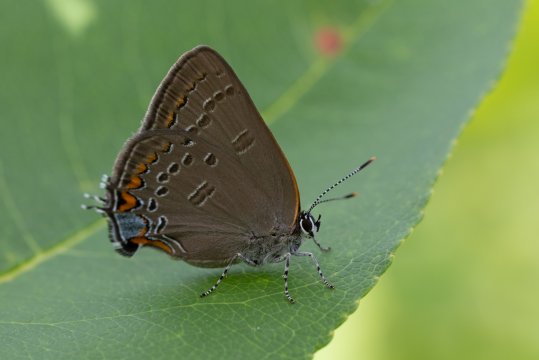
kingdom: Animalia
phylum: Arthropoda
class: Insecta
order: Lepidoptera
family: Lycaenidae
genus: Satyrium
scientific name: Satyrium edwardsii
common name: Edwards' Hairstreak
